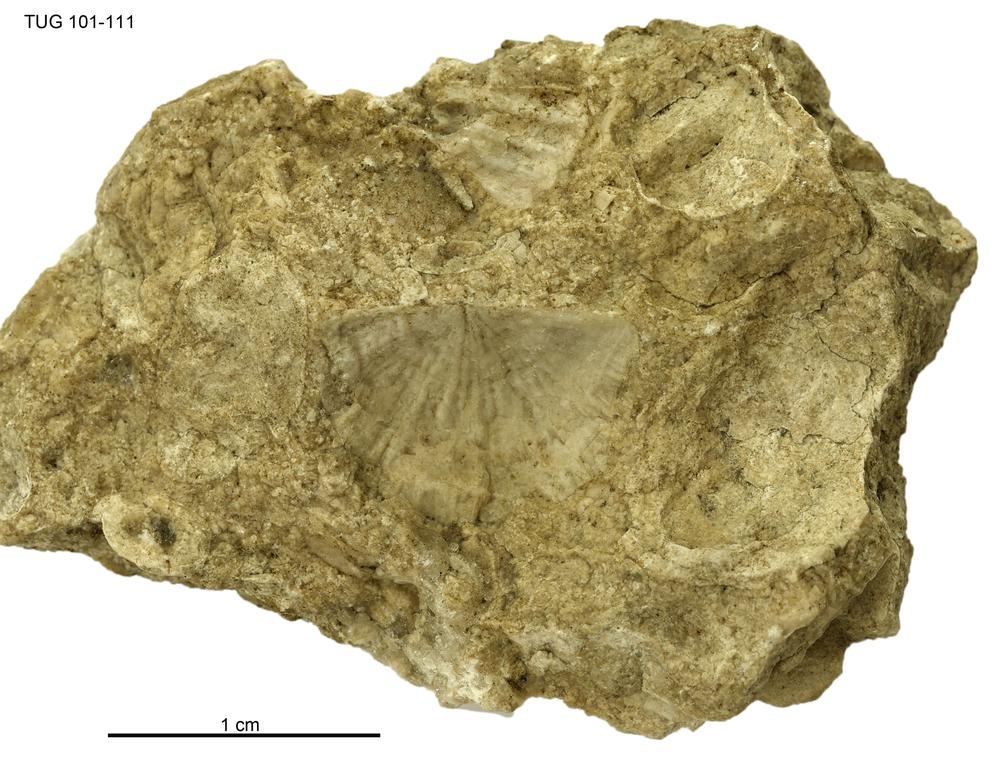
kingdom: Animalia
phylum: Brachiopoda
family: Strophomenidae
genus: Holtedahlina
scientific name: Holtedahlina
